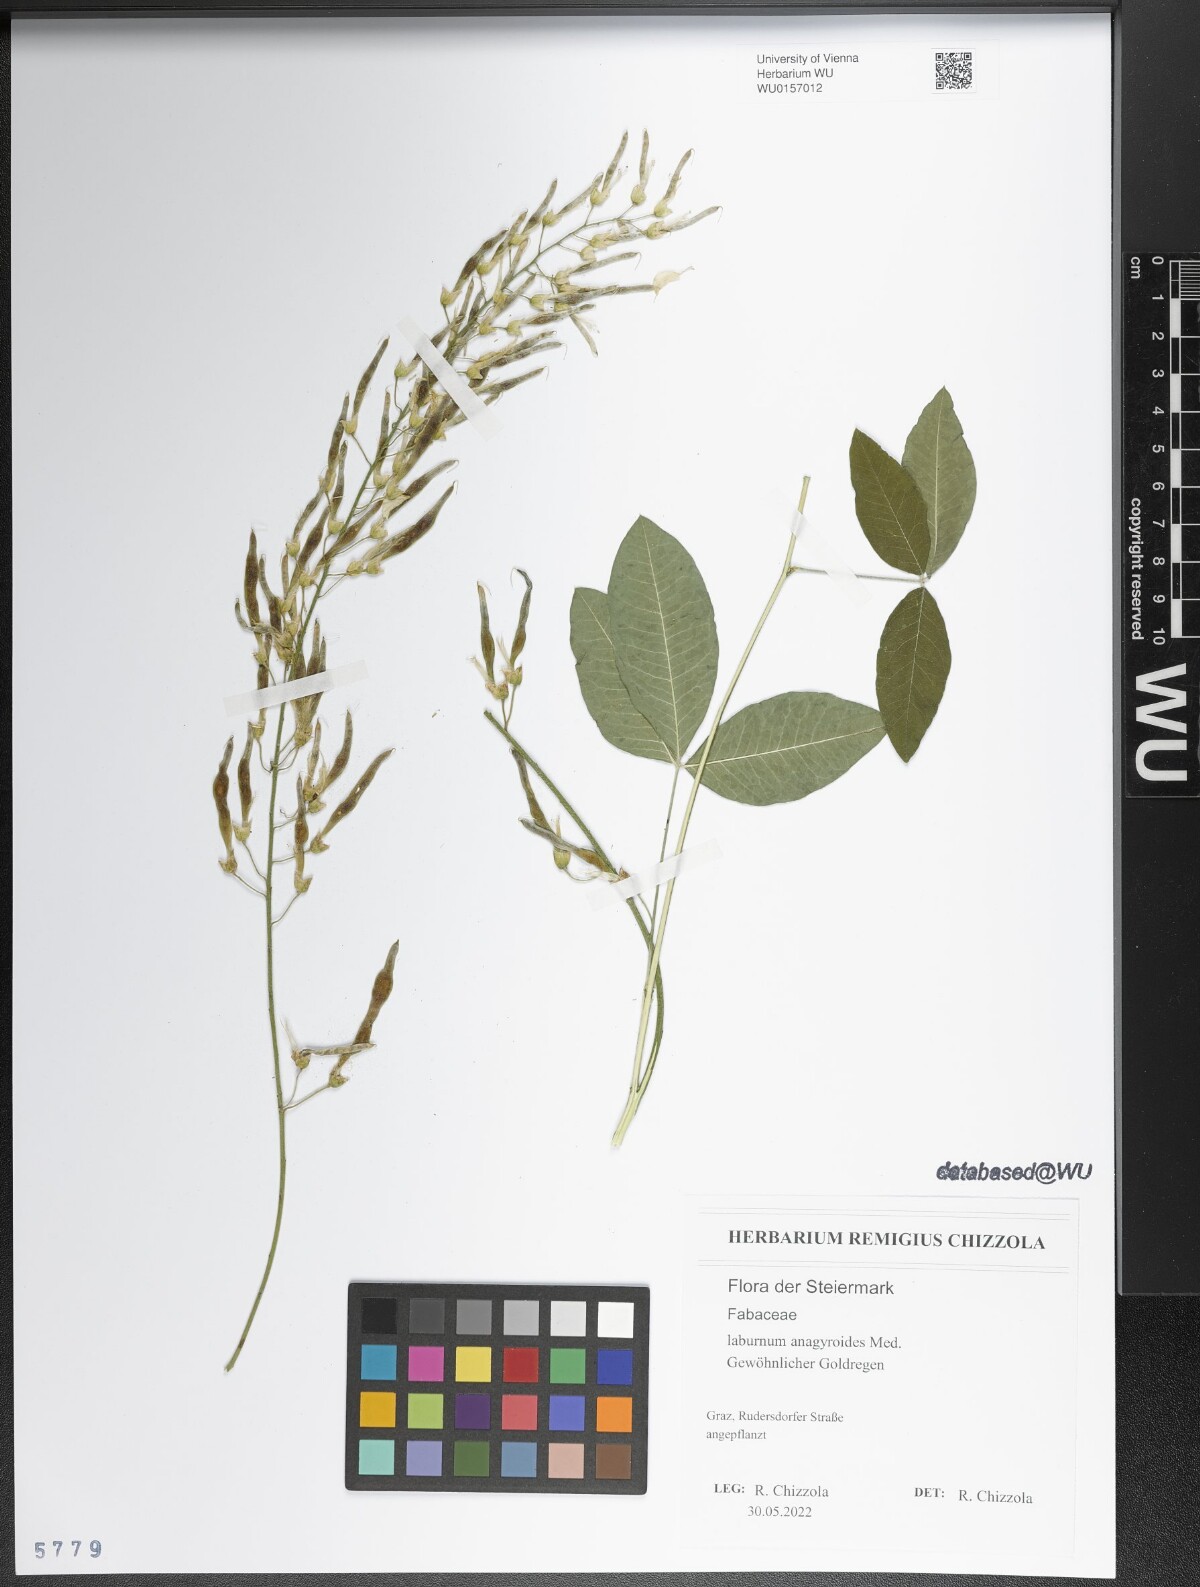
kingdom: Plantae
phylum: Tracheophyta
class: Magnoliopsida
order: Fabales
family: Fabaceae
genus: Laburnum
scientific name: Laburnum anagyroides
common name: Laburnum
